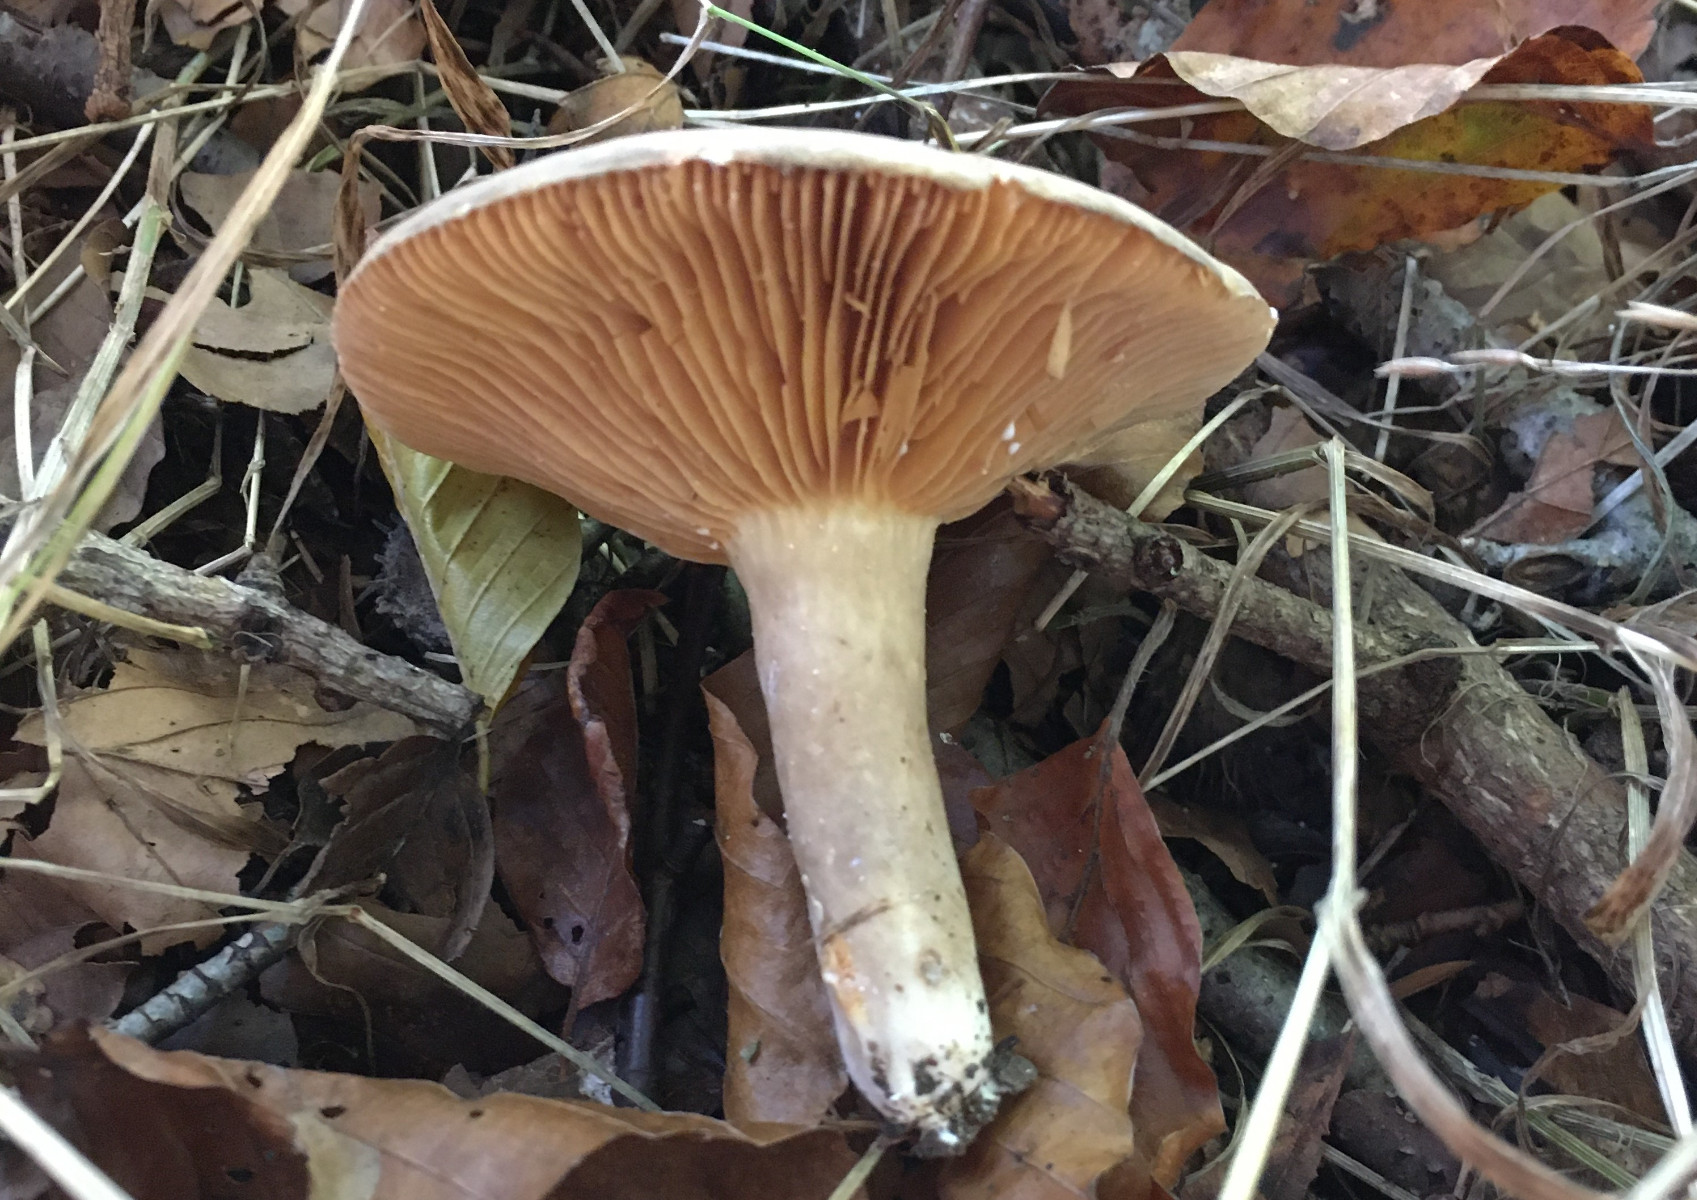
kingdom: Fungi
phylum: Basidiomycota
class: Agaricomycetes
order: Russulales
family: Russulaceae
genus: Lactarius
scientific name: Lactarius pterosporus
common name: vingesporet mælkehat
